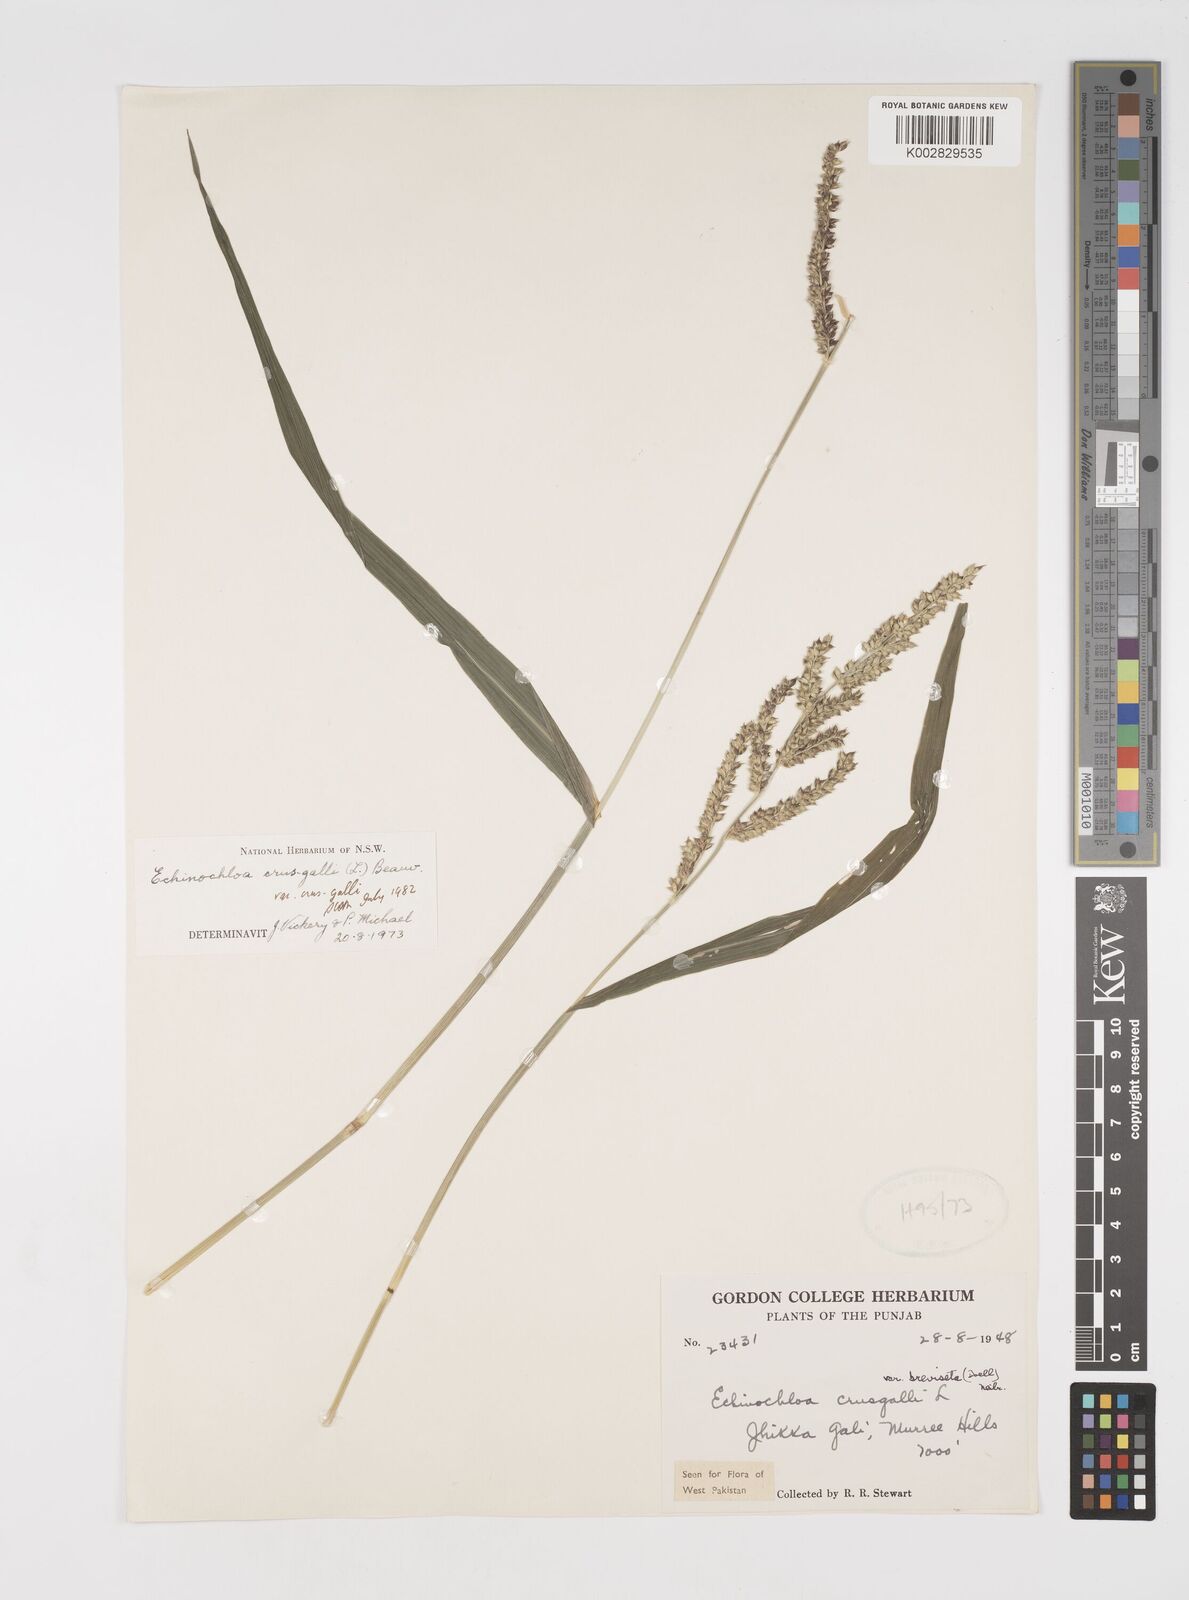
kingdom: Plantae
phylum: Tracheophyta
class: Liliopsida
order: Poales
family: Poaceae
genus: Echinochloa
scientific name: Echinochloa crus-galli
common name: Cockspur
